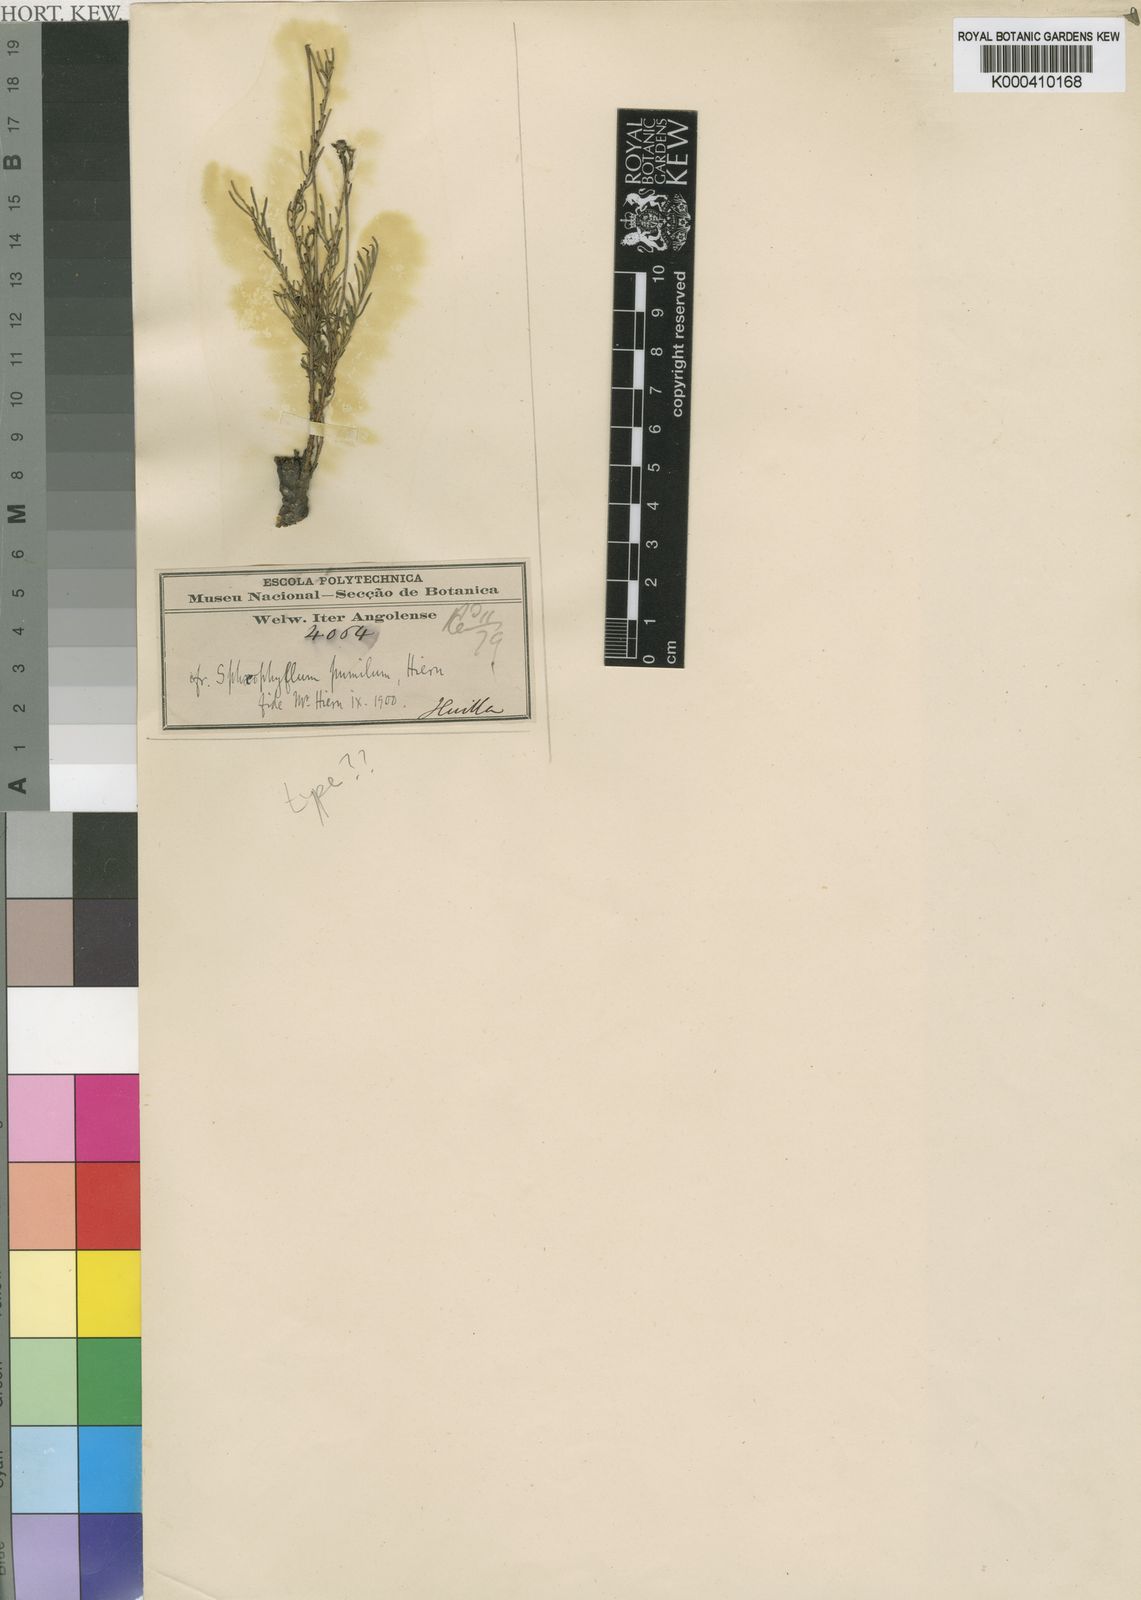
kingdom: Plantae
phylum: Tracheophyta
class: Magnoliopsida
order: Asterales
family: Asteraceae
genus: Anisopappus
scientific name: Anisopappus davyi
